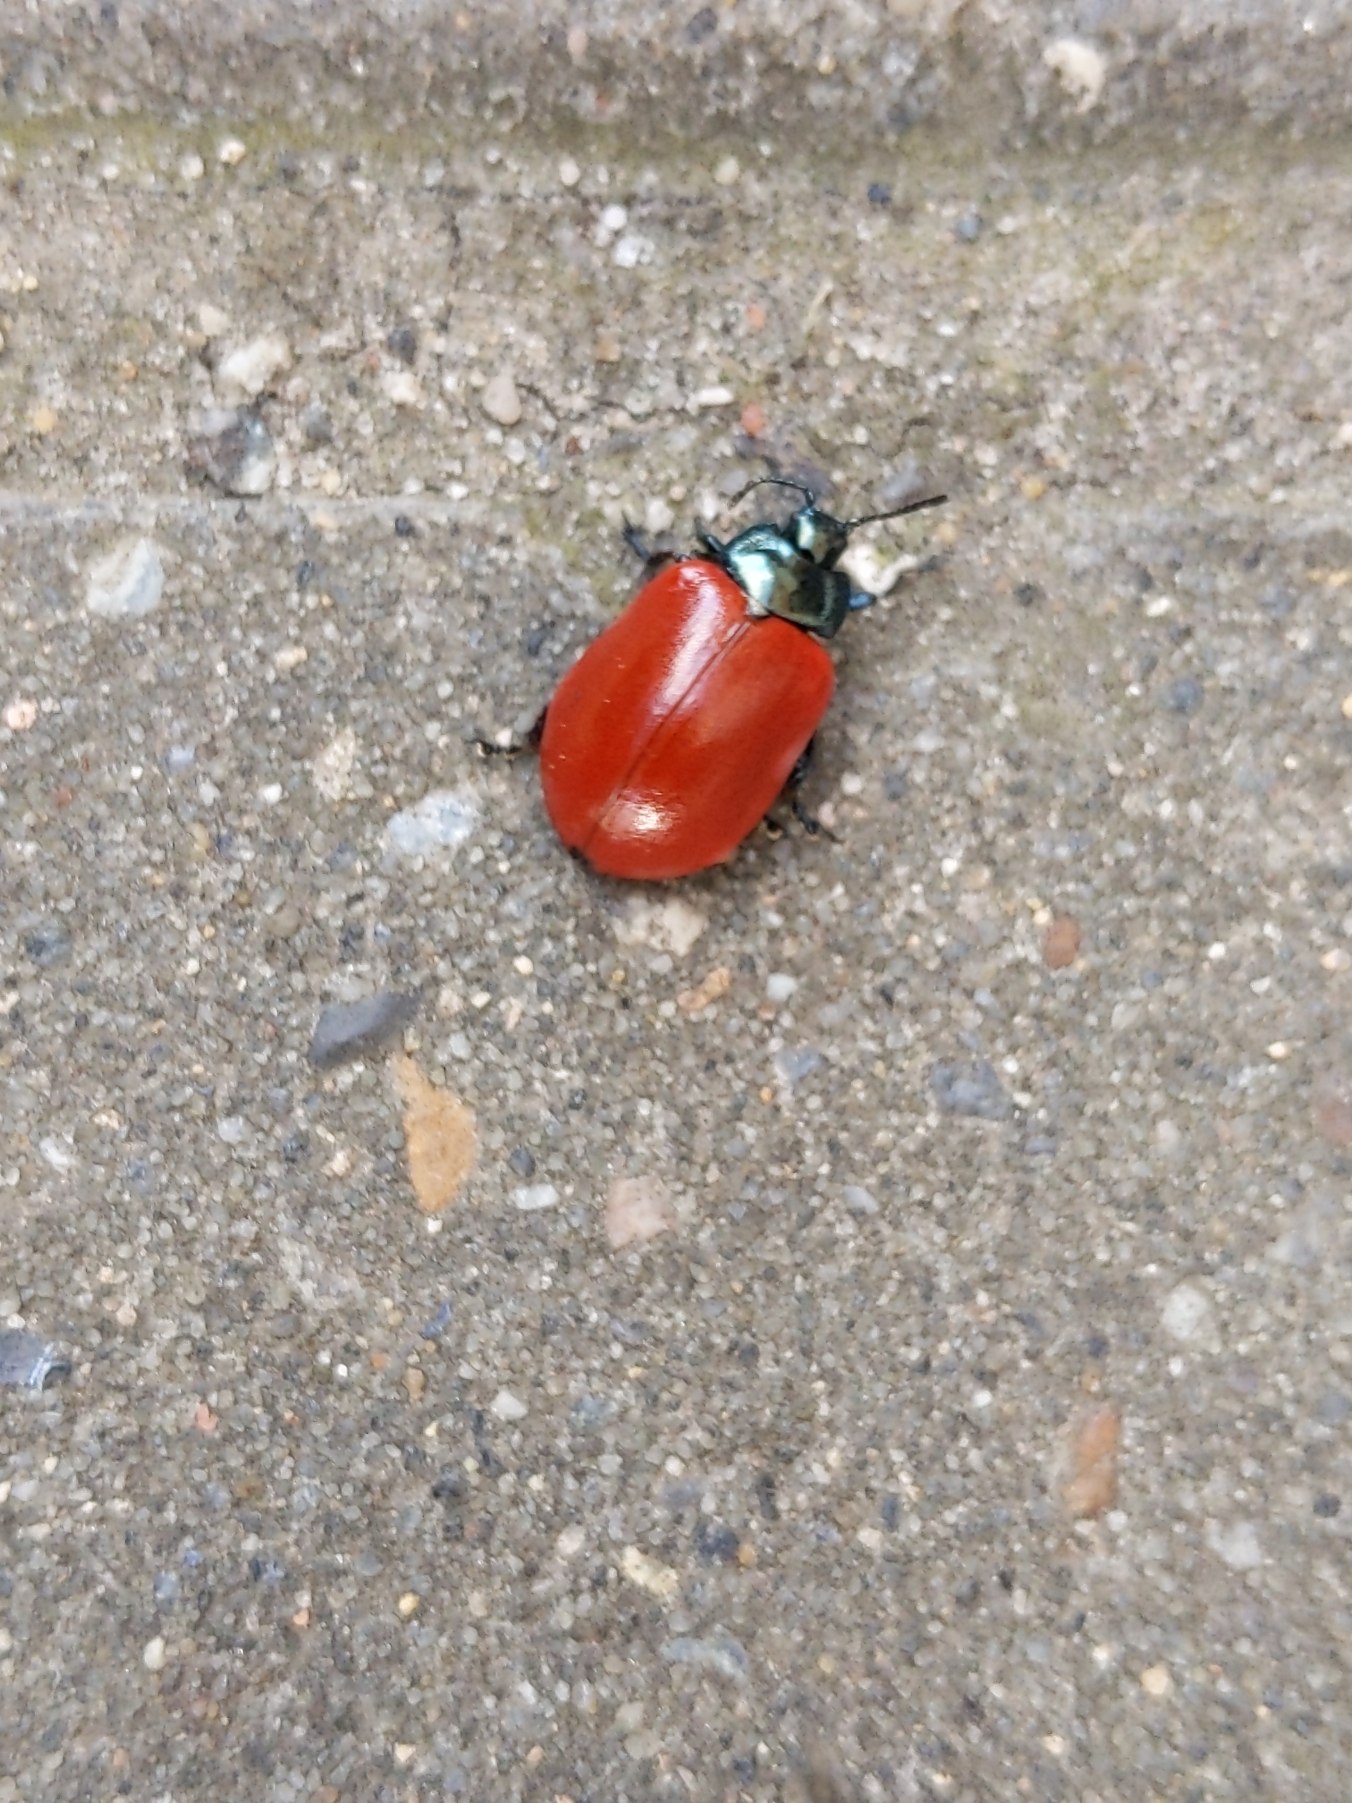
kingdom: Animalia
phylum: Arthropoda
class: Insecta
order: Coleoptera
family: Chrysomelidae
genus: Chrysomela
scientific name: Chrysomela populi
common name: Poppelbladbille
